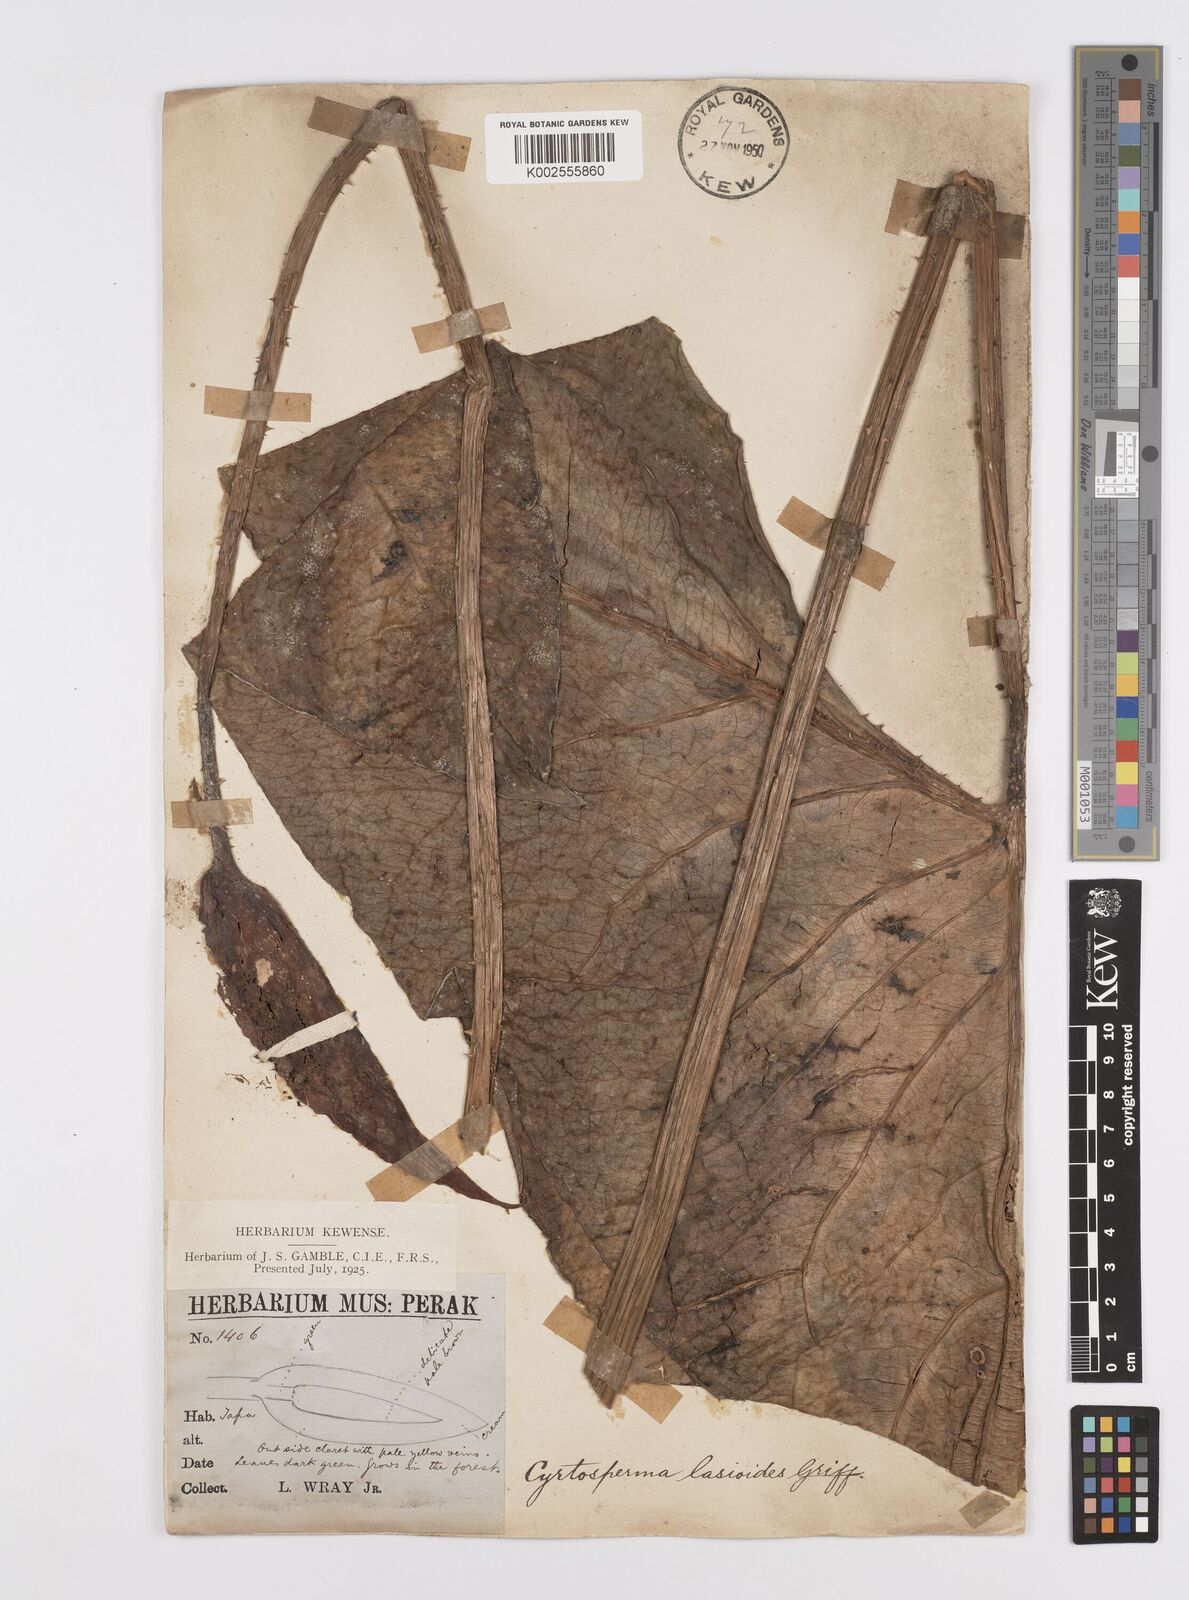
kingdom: Plantae
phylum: Tracheophyta
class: Liliopsida
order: Alismatales
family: Araceae
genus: Cyrtosperma
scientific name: Cyrtosperma merkusii
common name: Giant swamp-taro
